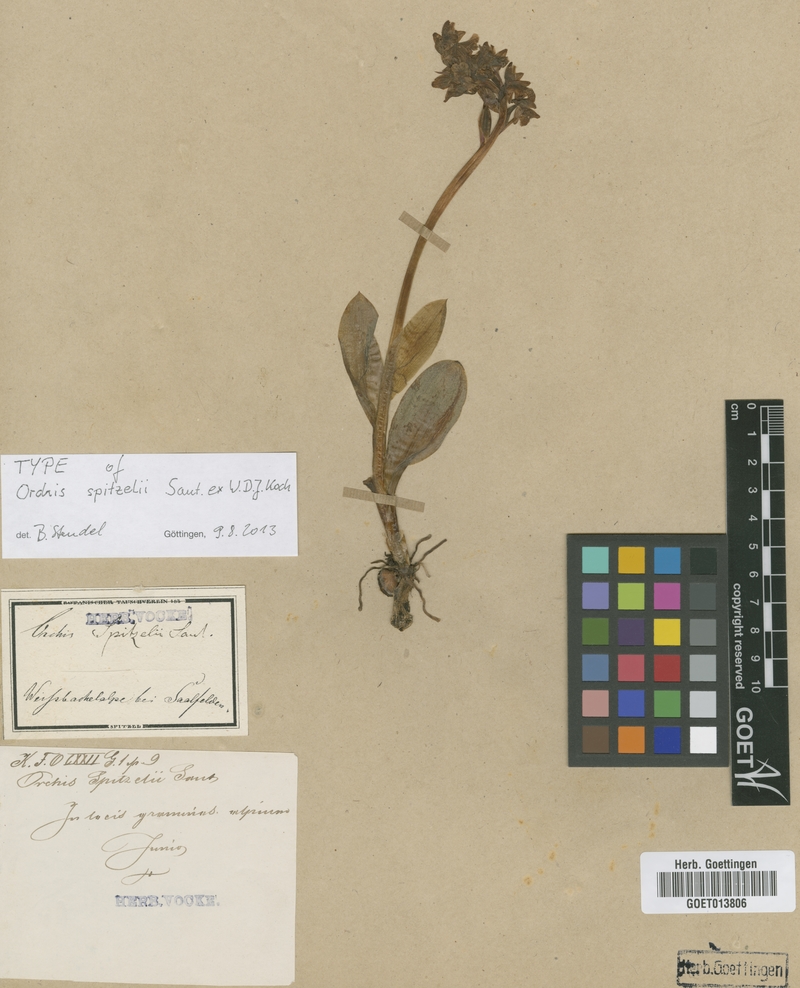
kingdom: Plantae
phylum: Tracheophyta
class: Liliopsida
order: Asparagales
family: Orchidaceae
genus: Orchis
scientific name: Orchis spitzelii
